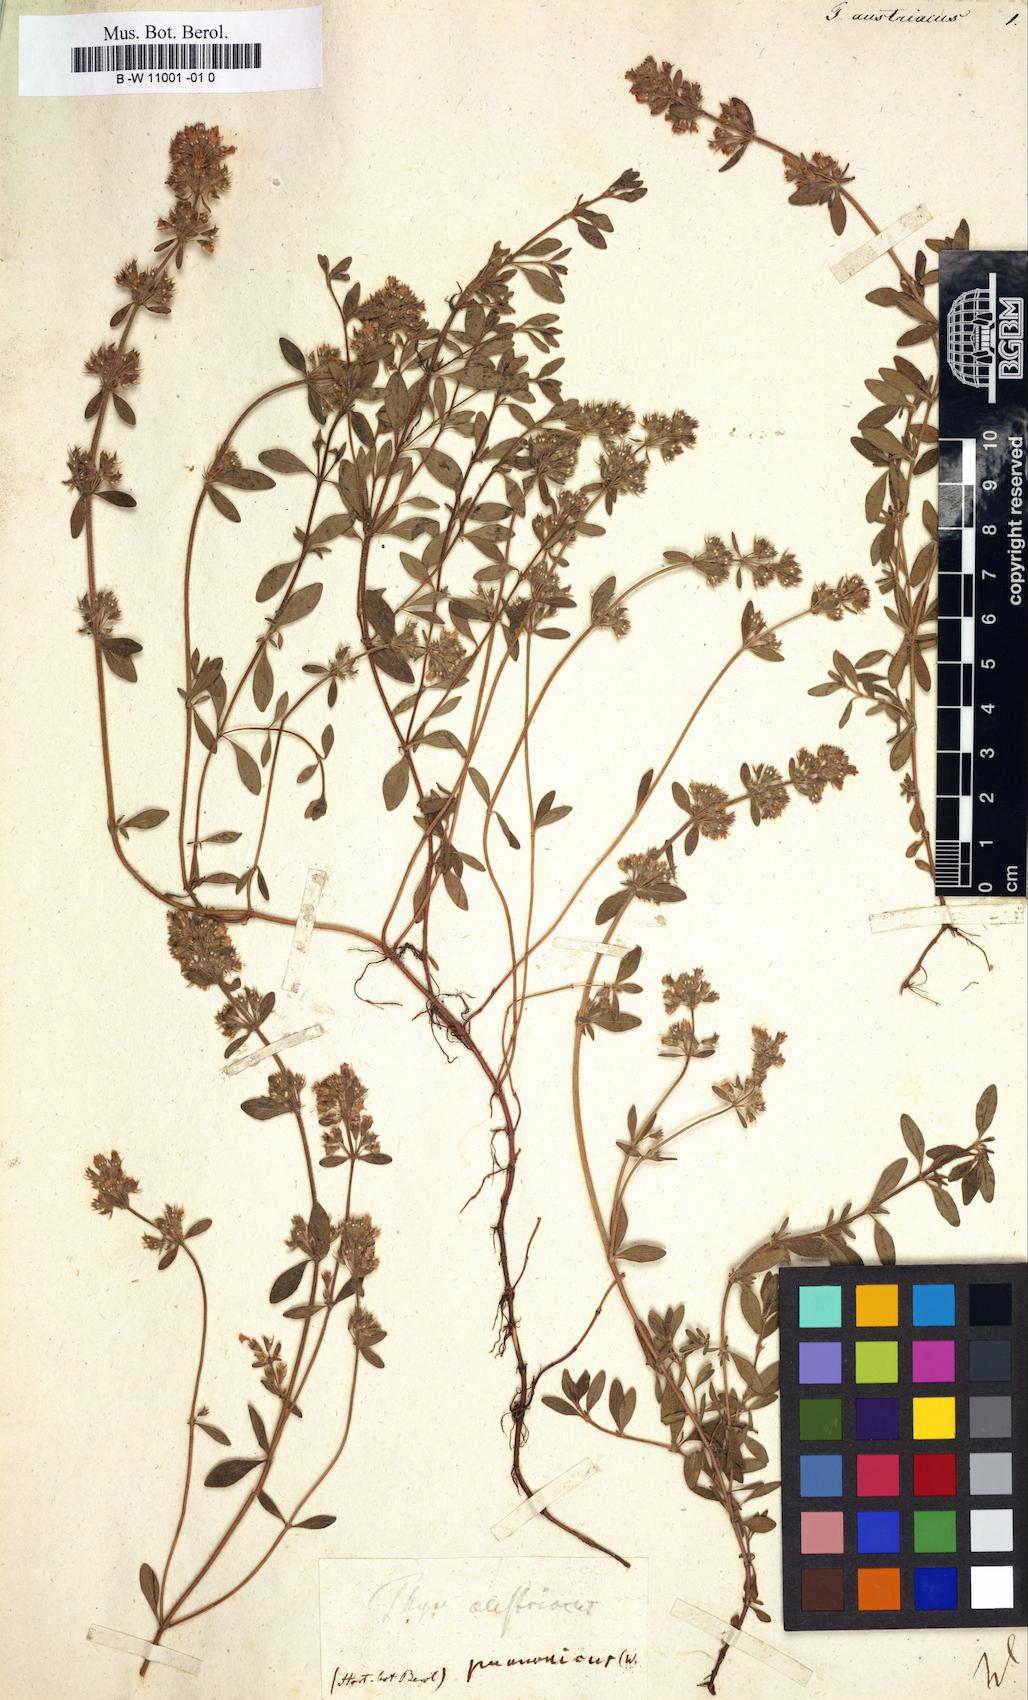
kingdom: Plantae
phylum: Tracheophyta
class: Magnoliopsida
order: Lamiales
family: Lamiaceae
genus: Thymus
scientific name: Thymus odoratissimus
